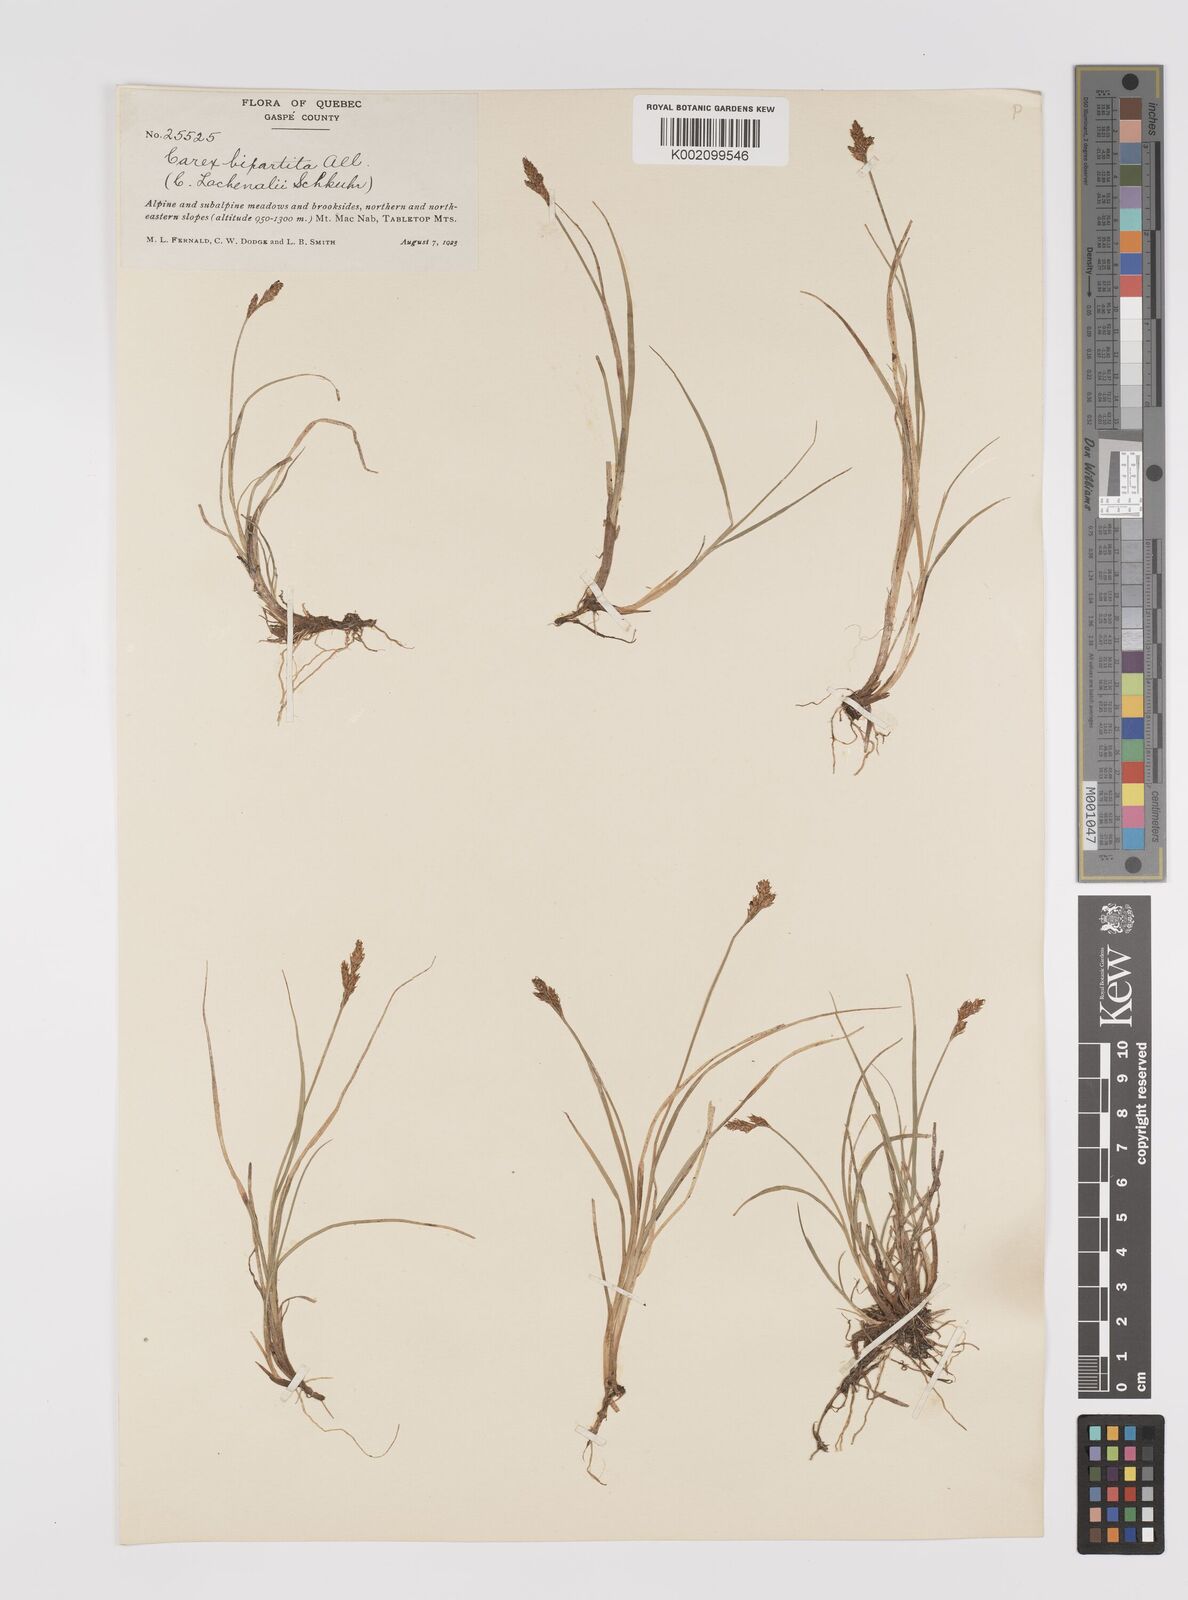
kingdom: Plantae
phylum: Tracheophyta
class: Liliopsida
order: Poales
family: Cyperaceae
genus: Carex
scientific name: Carex lachenalii
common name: Hare's-foot sedge
